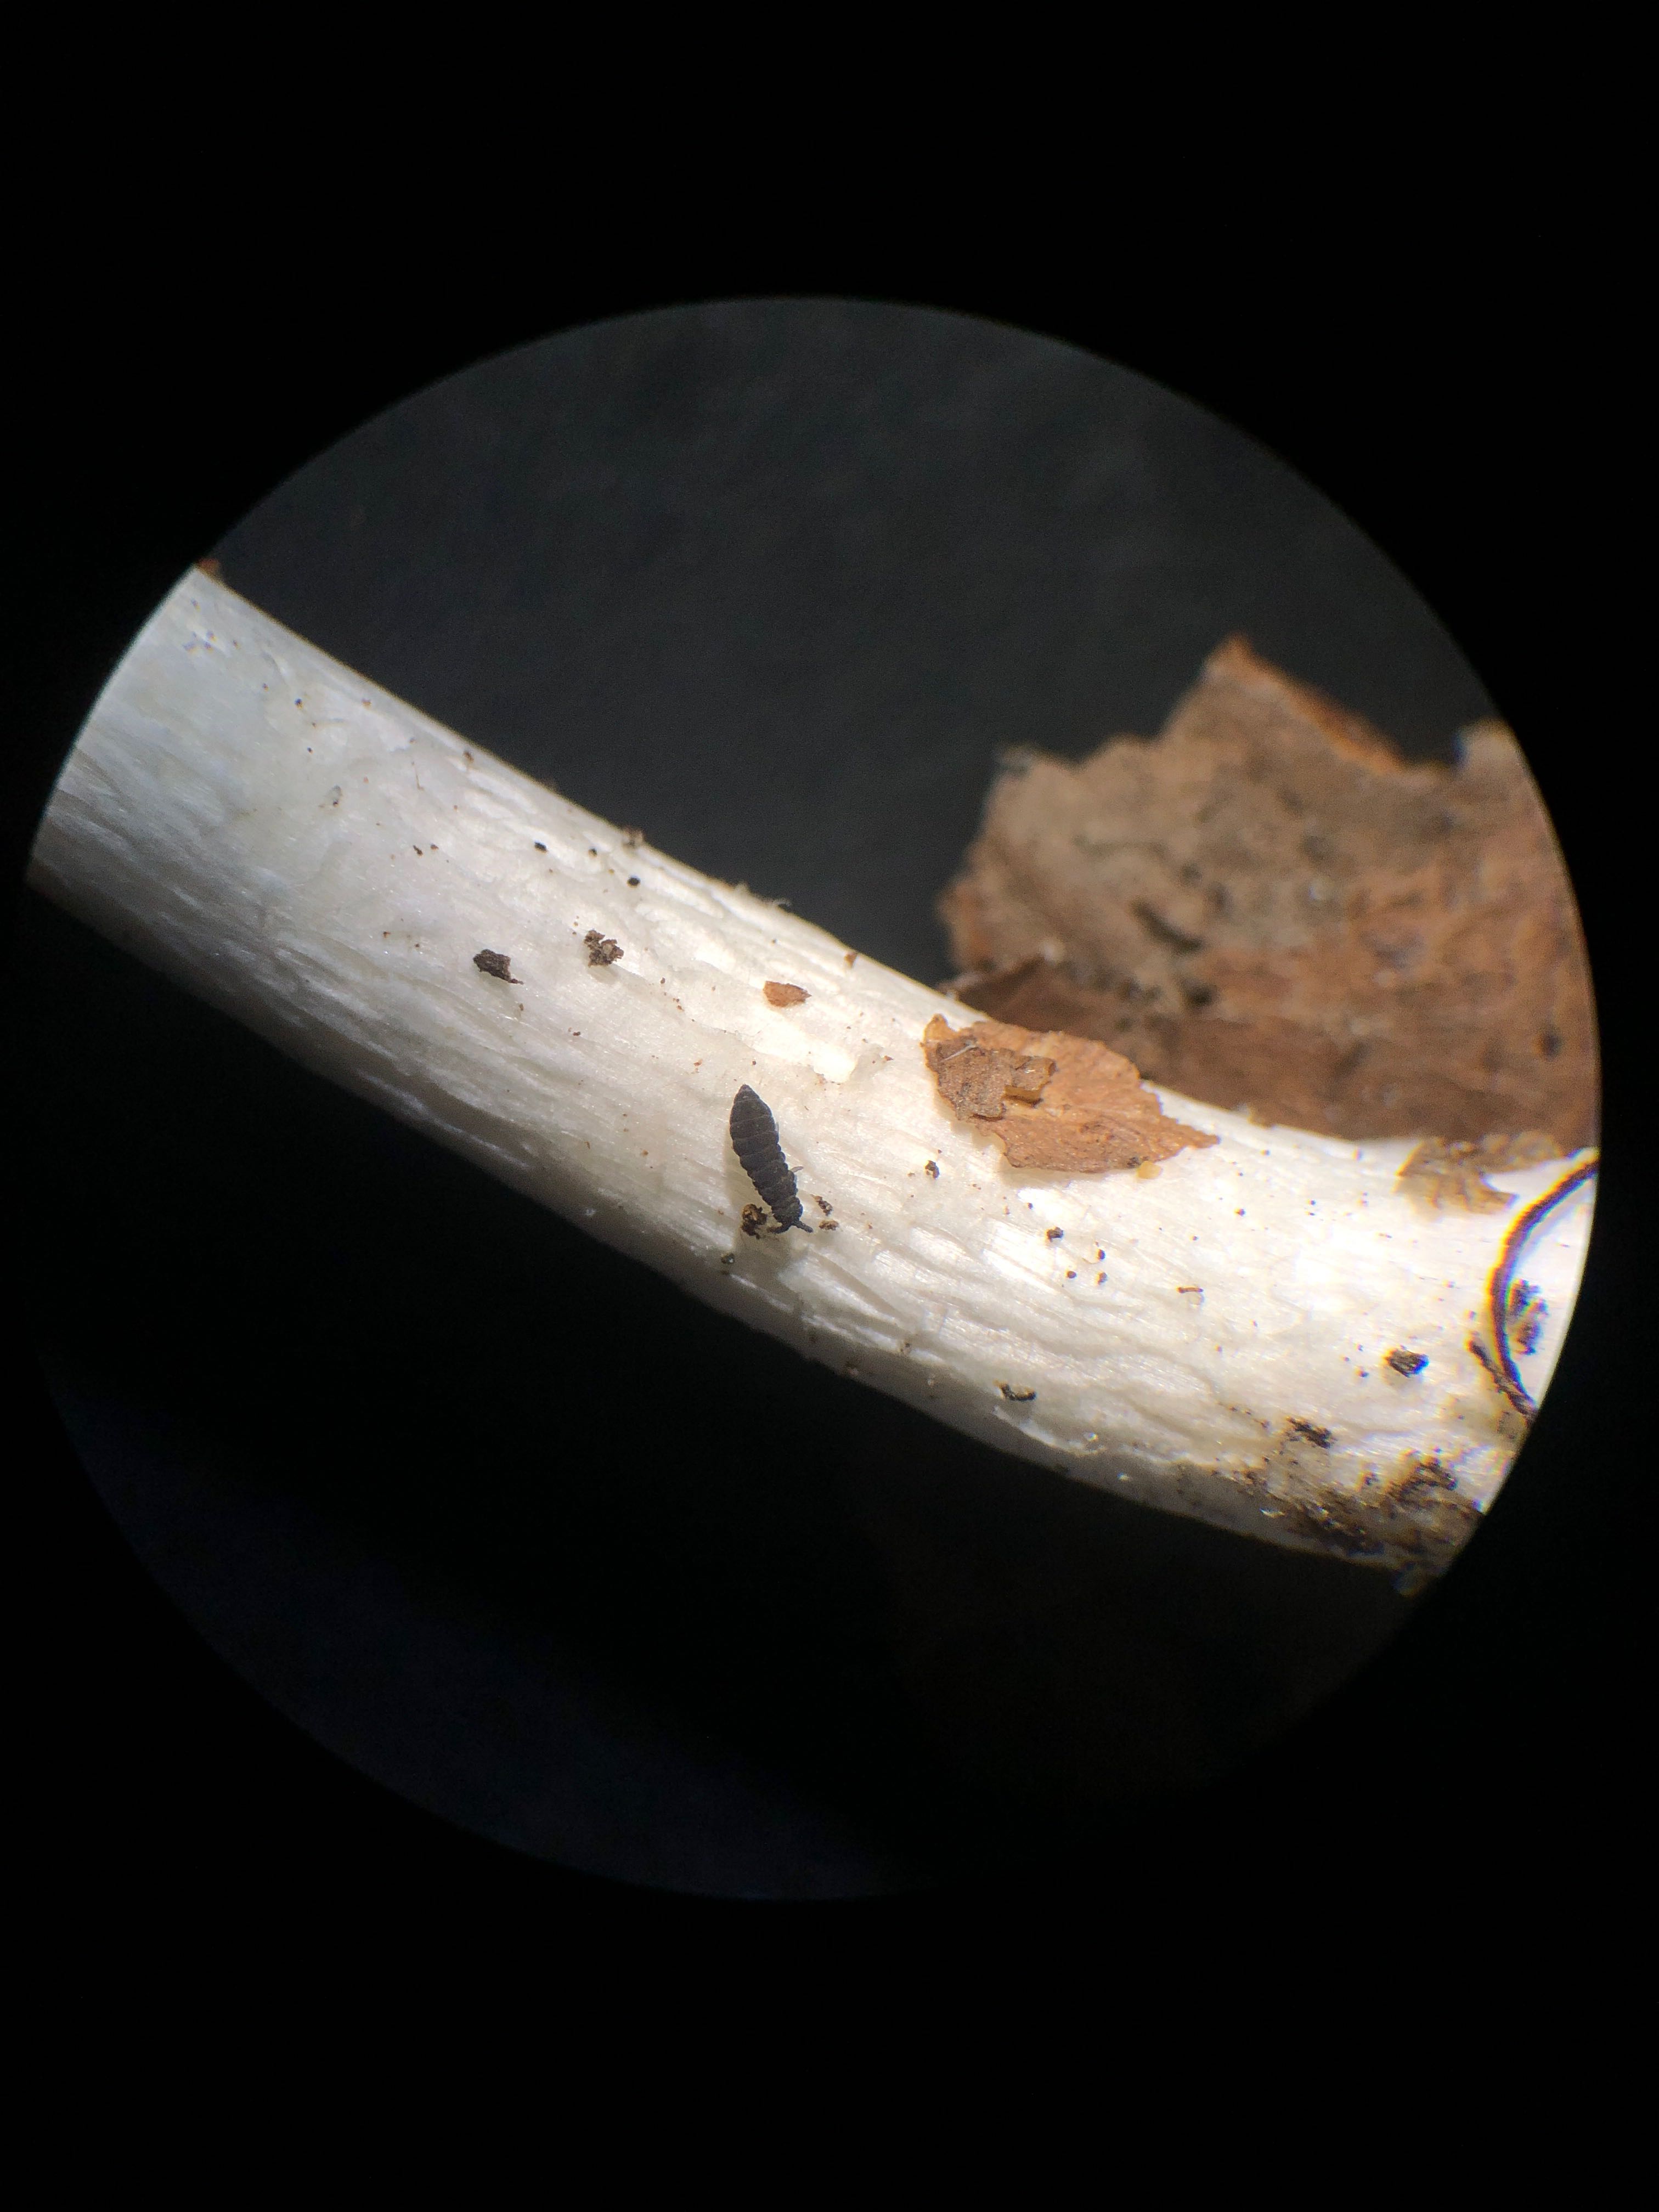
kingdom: Fungi
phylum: Basidiomycota
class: Agaricomycetes
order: Agaricales
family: Inocybaceae
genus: Inocybe
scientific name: Inocybe
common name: almindelig trævlhat
